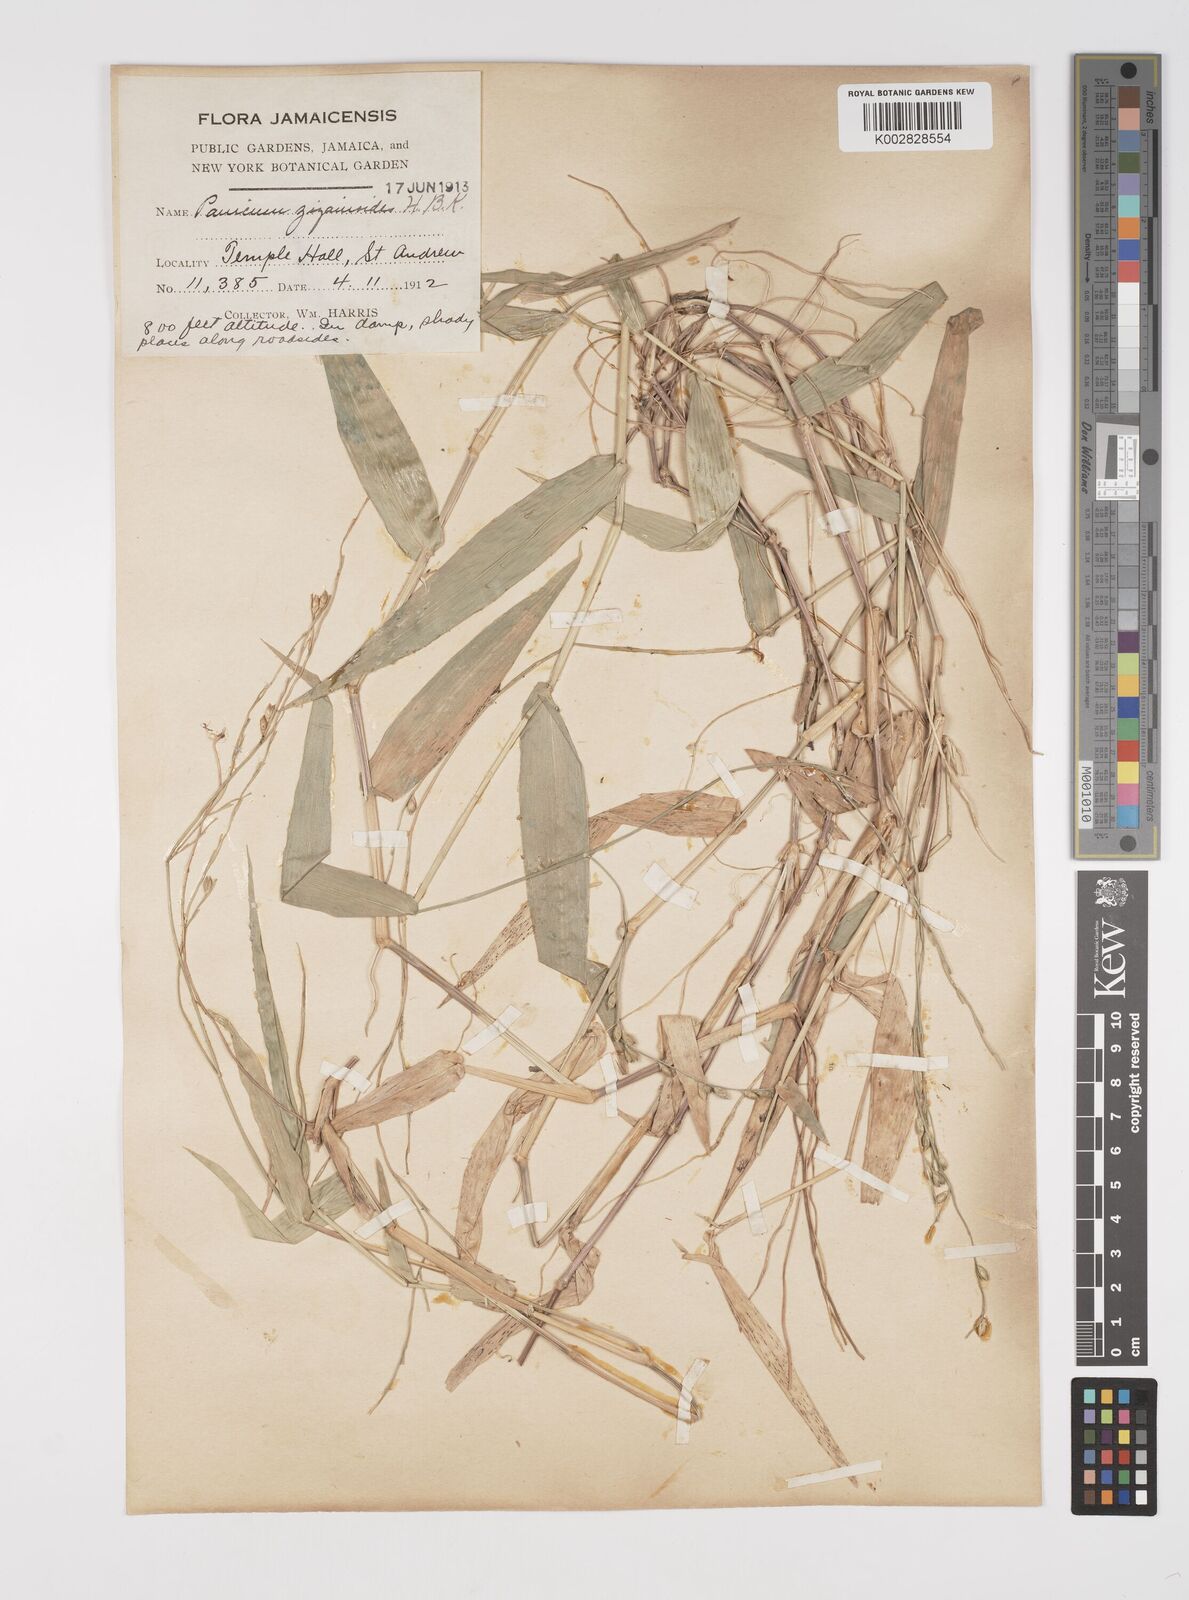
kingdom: Plantae
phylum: Tracheophyta
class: Liliopsida
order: Poales
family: Poaceae
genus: Acroceras
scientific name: Acroceras zizanioides
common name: Oat grass
